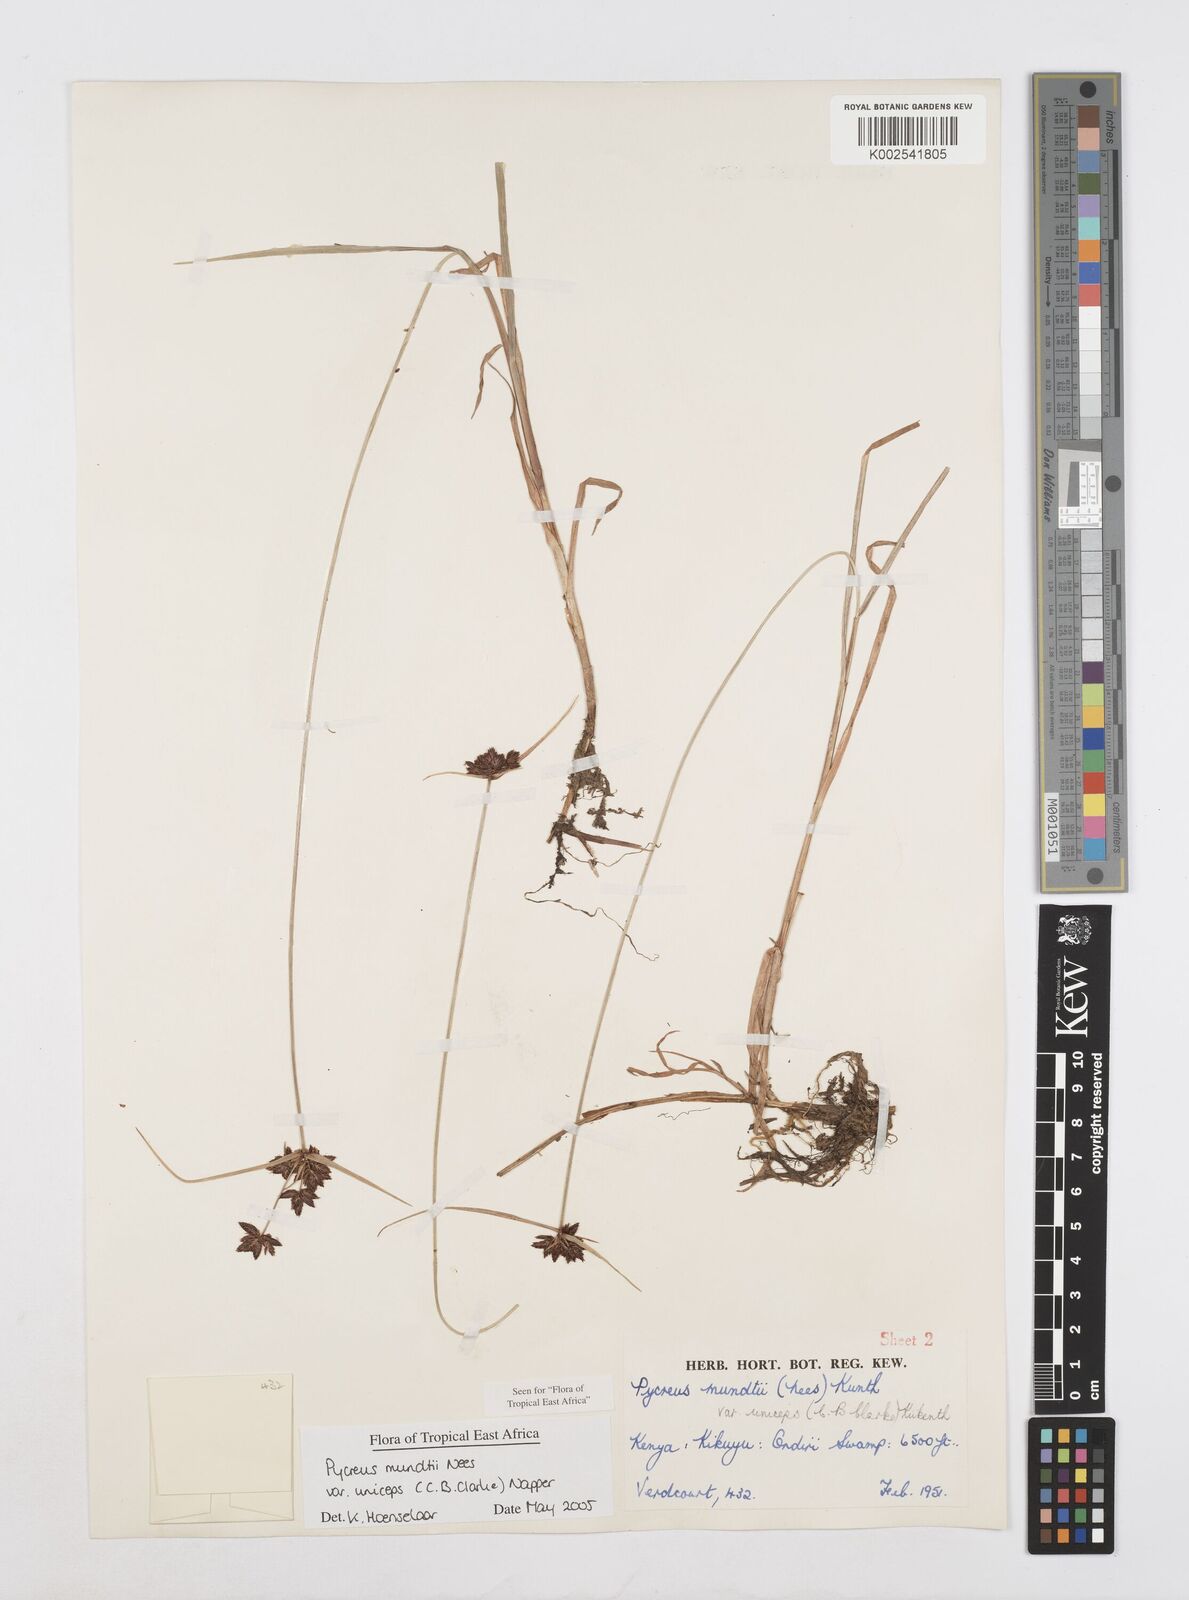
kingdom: Plantae
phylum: Tracheophyta
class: Liliopsida
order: Poales
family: Cyperaceae
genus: Cyperus
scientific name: Cyperus mundii
